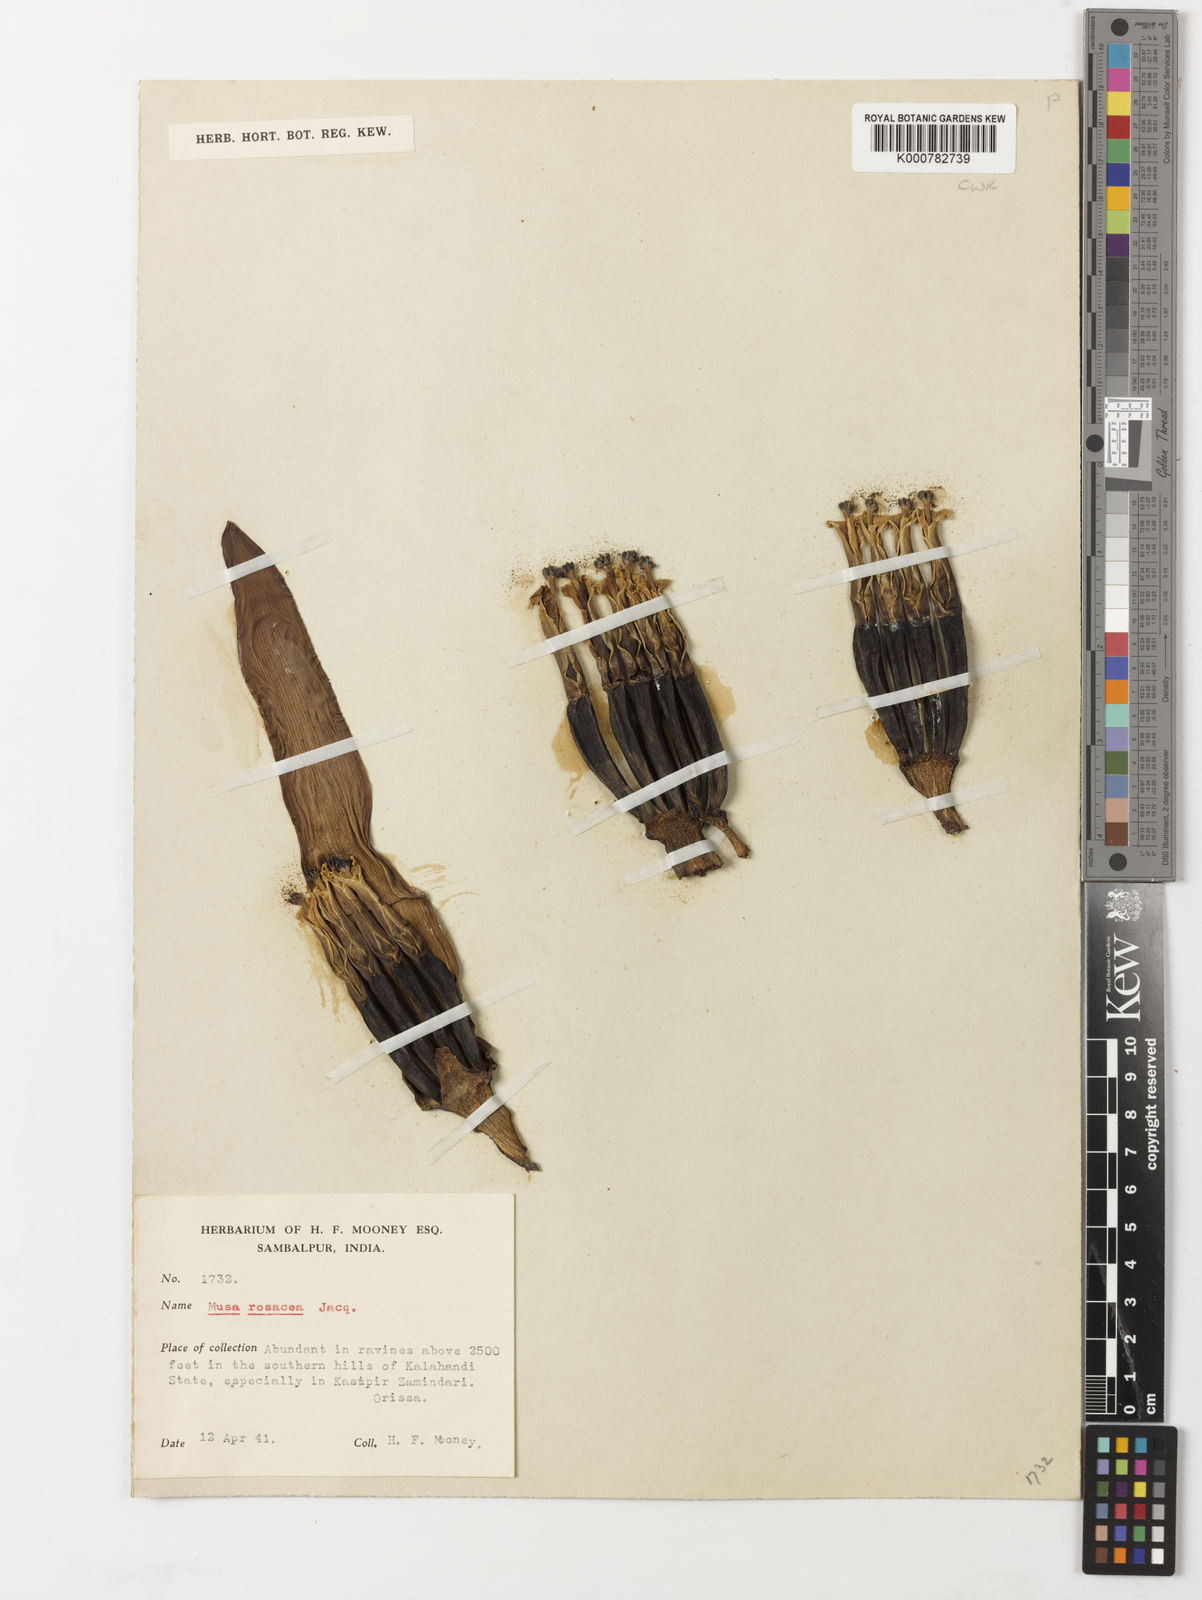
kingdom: Plantae
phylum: Tracheophyta
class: Liliopsida
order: Zingiberales
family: Musaceae
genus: Musa
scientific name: Musa balbisiana
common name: Plantain
